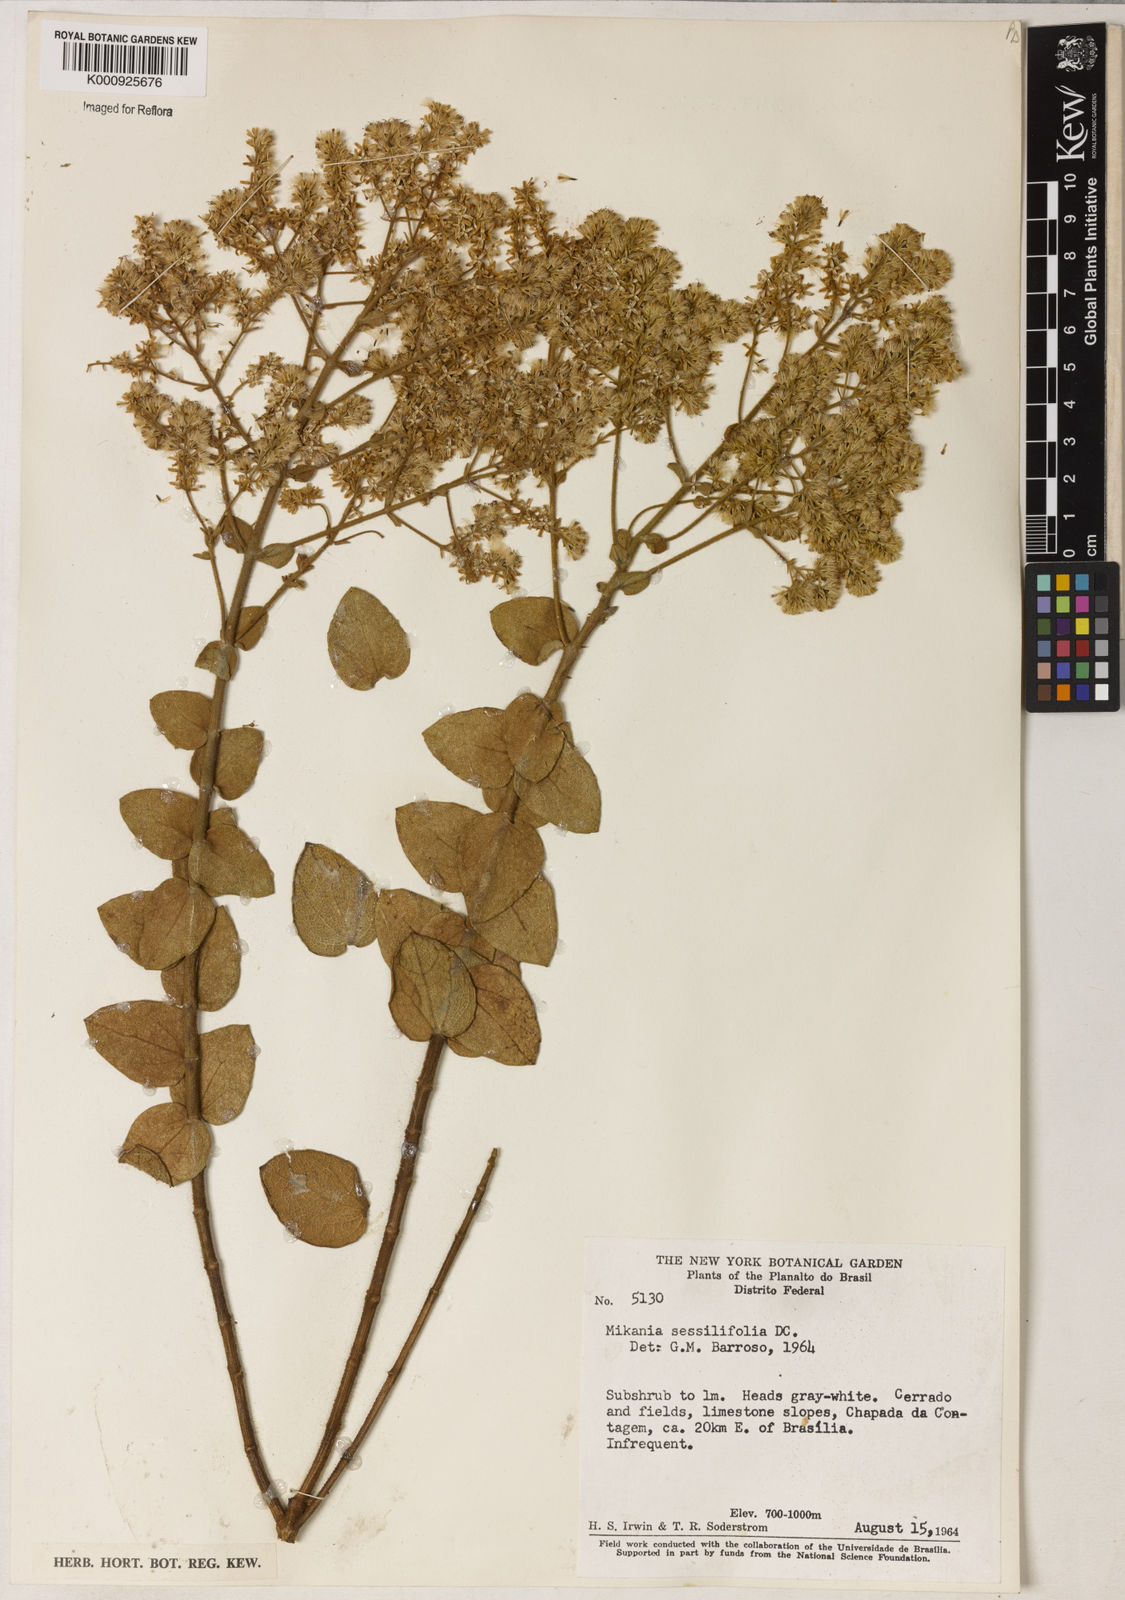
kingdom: Plantae
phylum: Tracheophyta
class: Magnoliopsida
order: Asterales
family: Asteraceae
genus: Mikania
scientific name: Mikania sessilifolia
